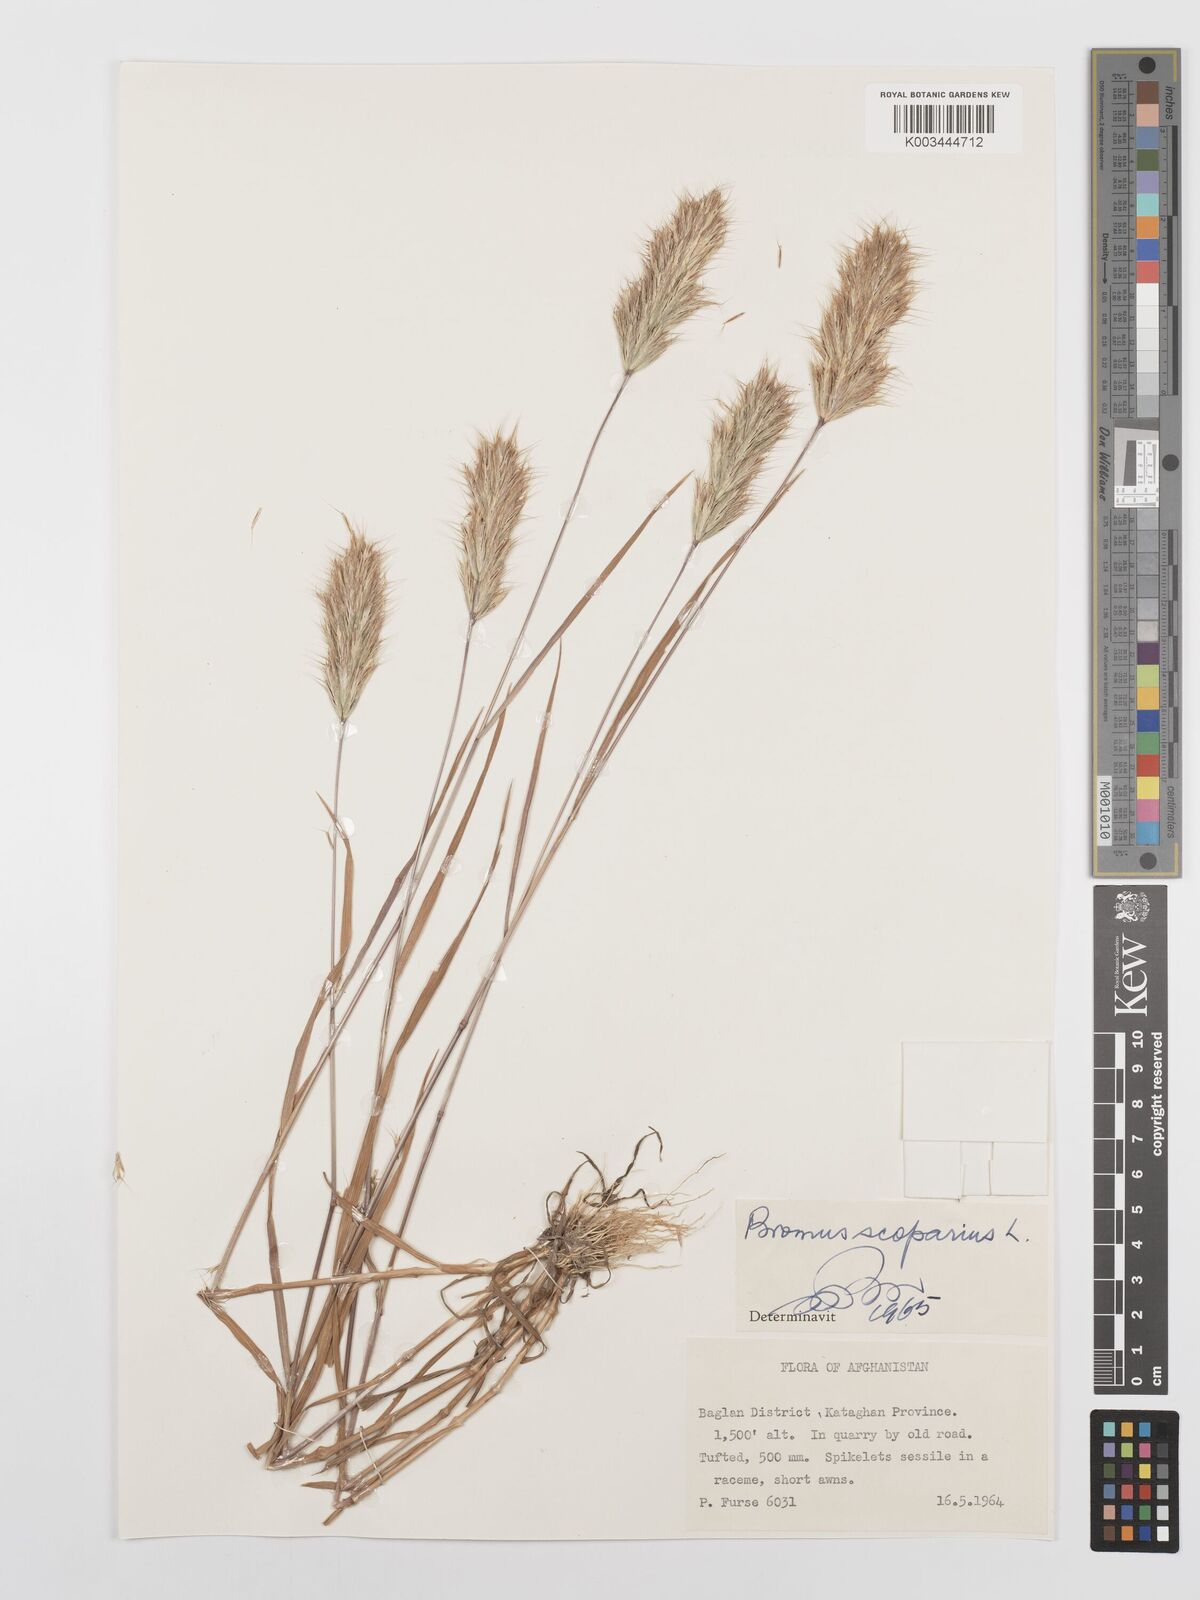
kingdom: Plantae
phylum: Tracheophyta
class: Liliopsida
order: Poales
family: Poaceae
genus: Bromus
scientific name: Bromus scoparius
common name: Broom brome
